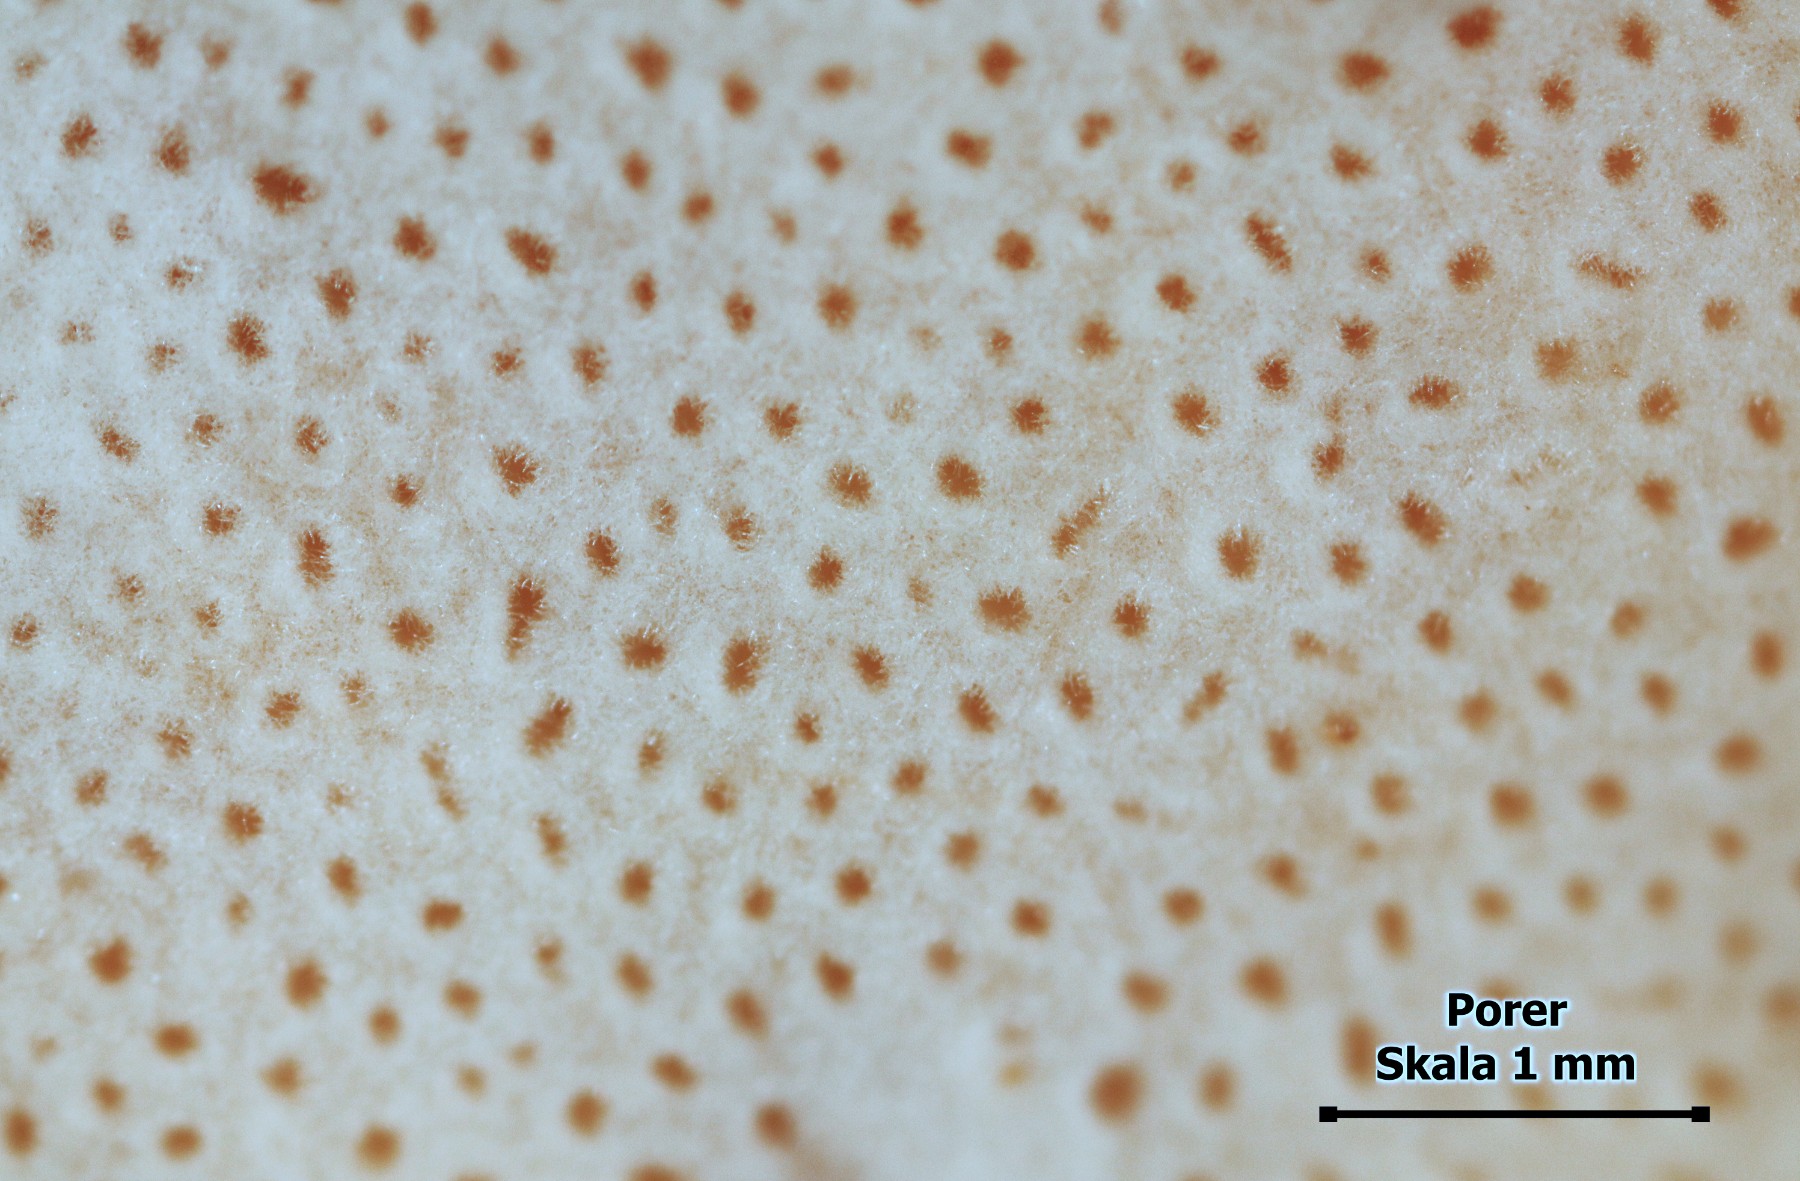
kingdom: Fungi
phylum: Basidiomycota
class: Agaricomycetes
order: Polyporales
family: Ischnodermataceae
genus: Ischnoderma
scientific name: Ischnoderma resinosum
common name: løv-tjæreporesvamp
